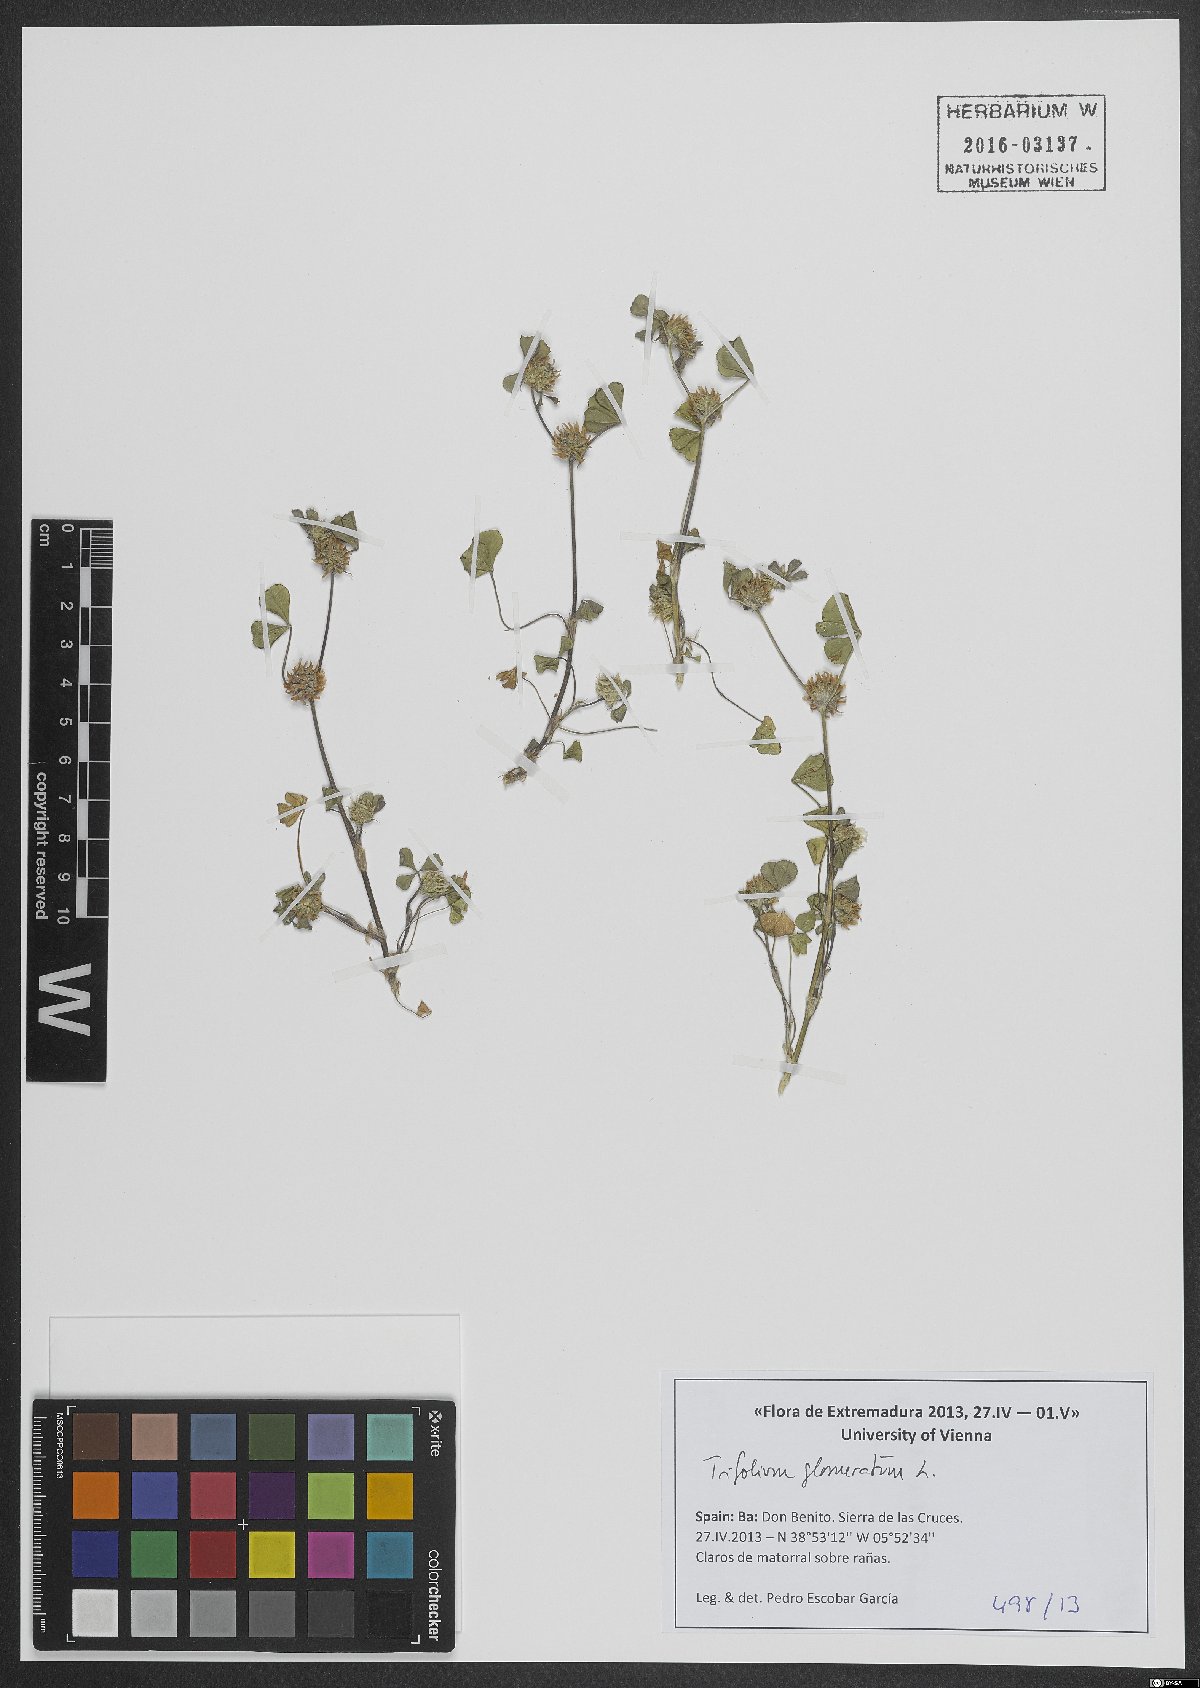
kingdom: Plantae
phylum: Tracheophyta
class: Magnoliopsida
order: Fabales
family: Fabaceae
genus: Trifolium
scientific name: Trifolium glomeratum
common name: Clustered clover
